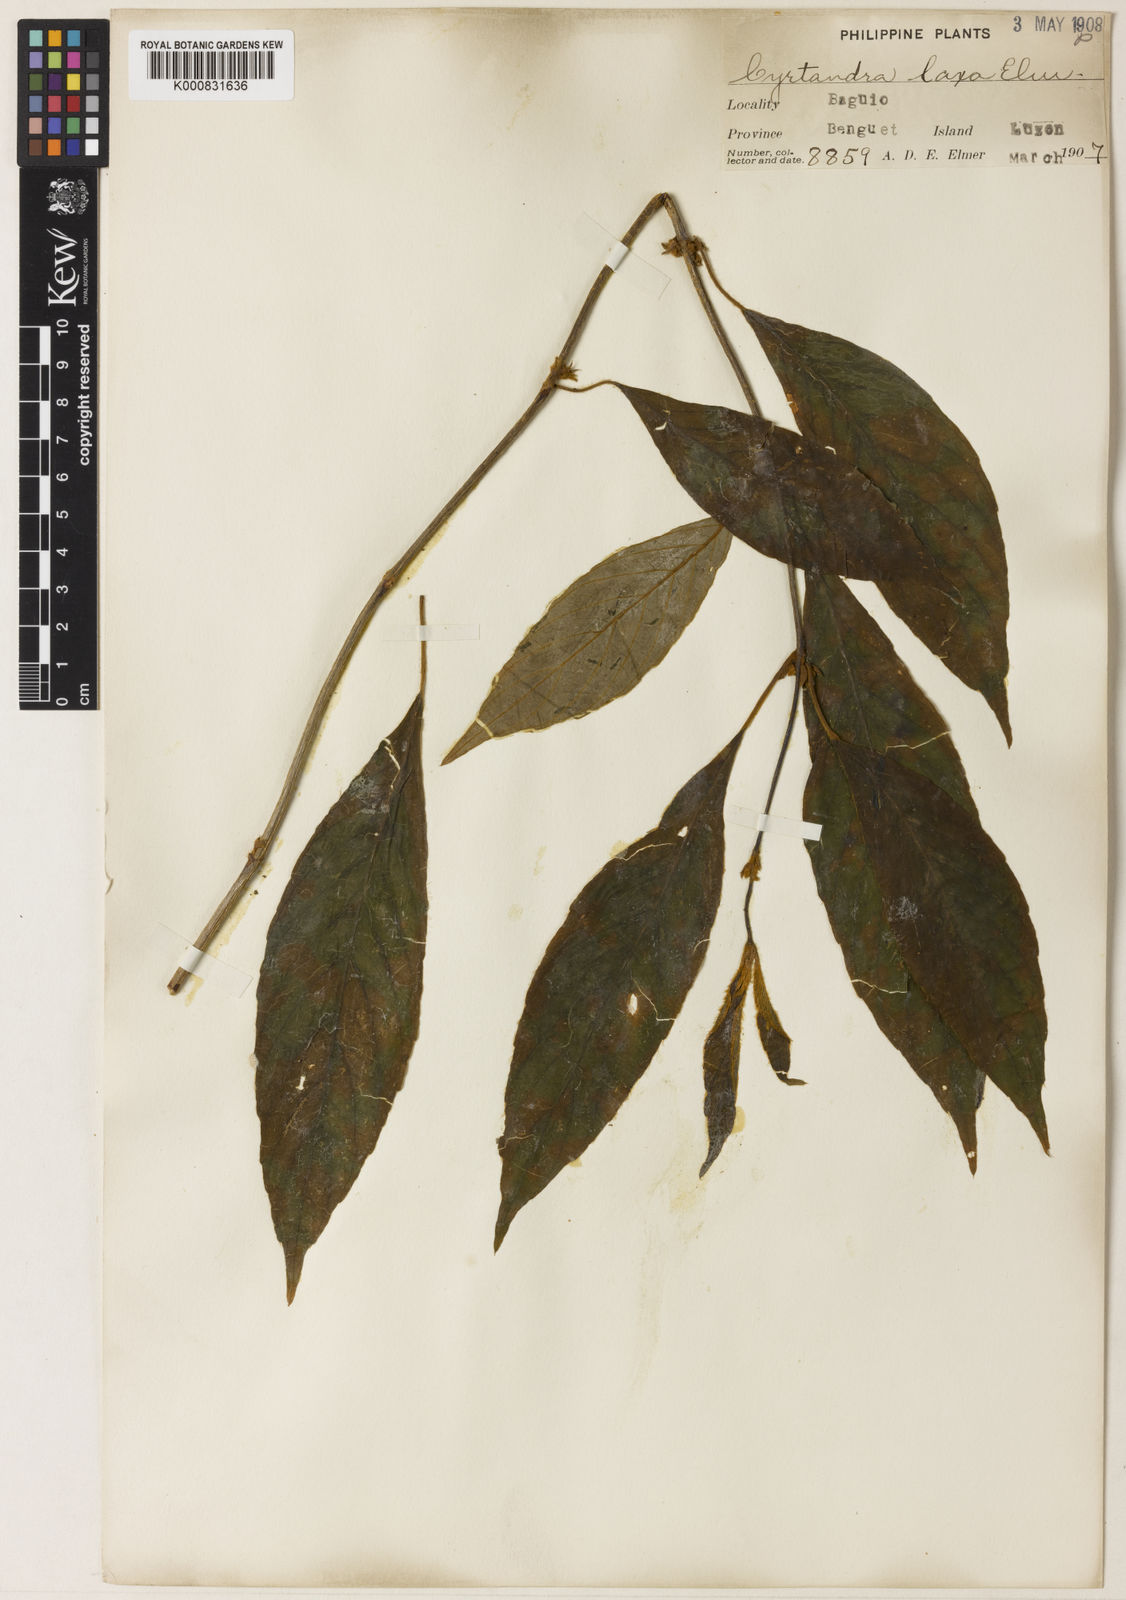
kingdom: Plantae
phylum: Tracheophyta
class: Magnoliopsida
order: Lamiales
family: Gesneriaceae
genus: Cyrtandra
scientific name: Cyrtandra pallida
